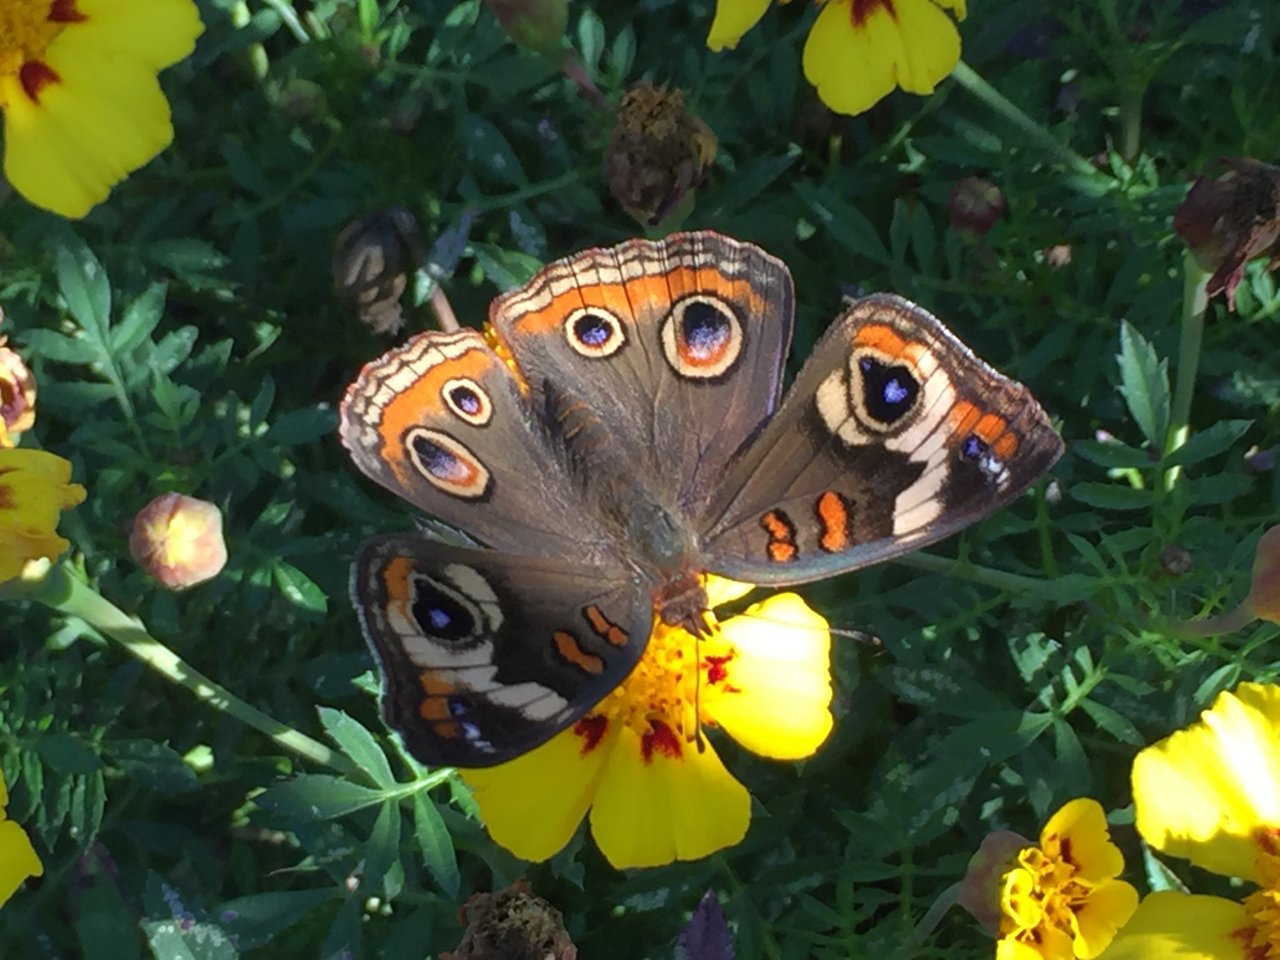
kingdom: Animalia
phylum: Arthropoda
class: Insecta
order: Lepidoptera
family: Nymphalidae
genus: Junonia
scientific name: Junonia coenia
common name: Common Buckeye
